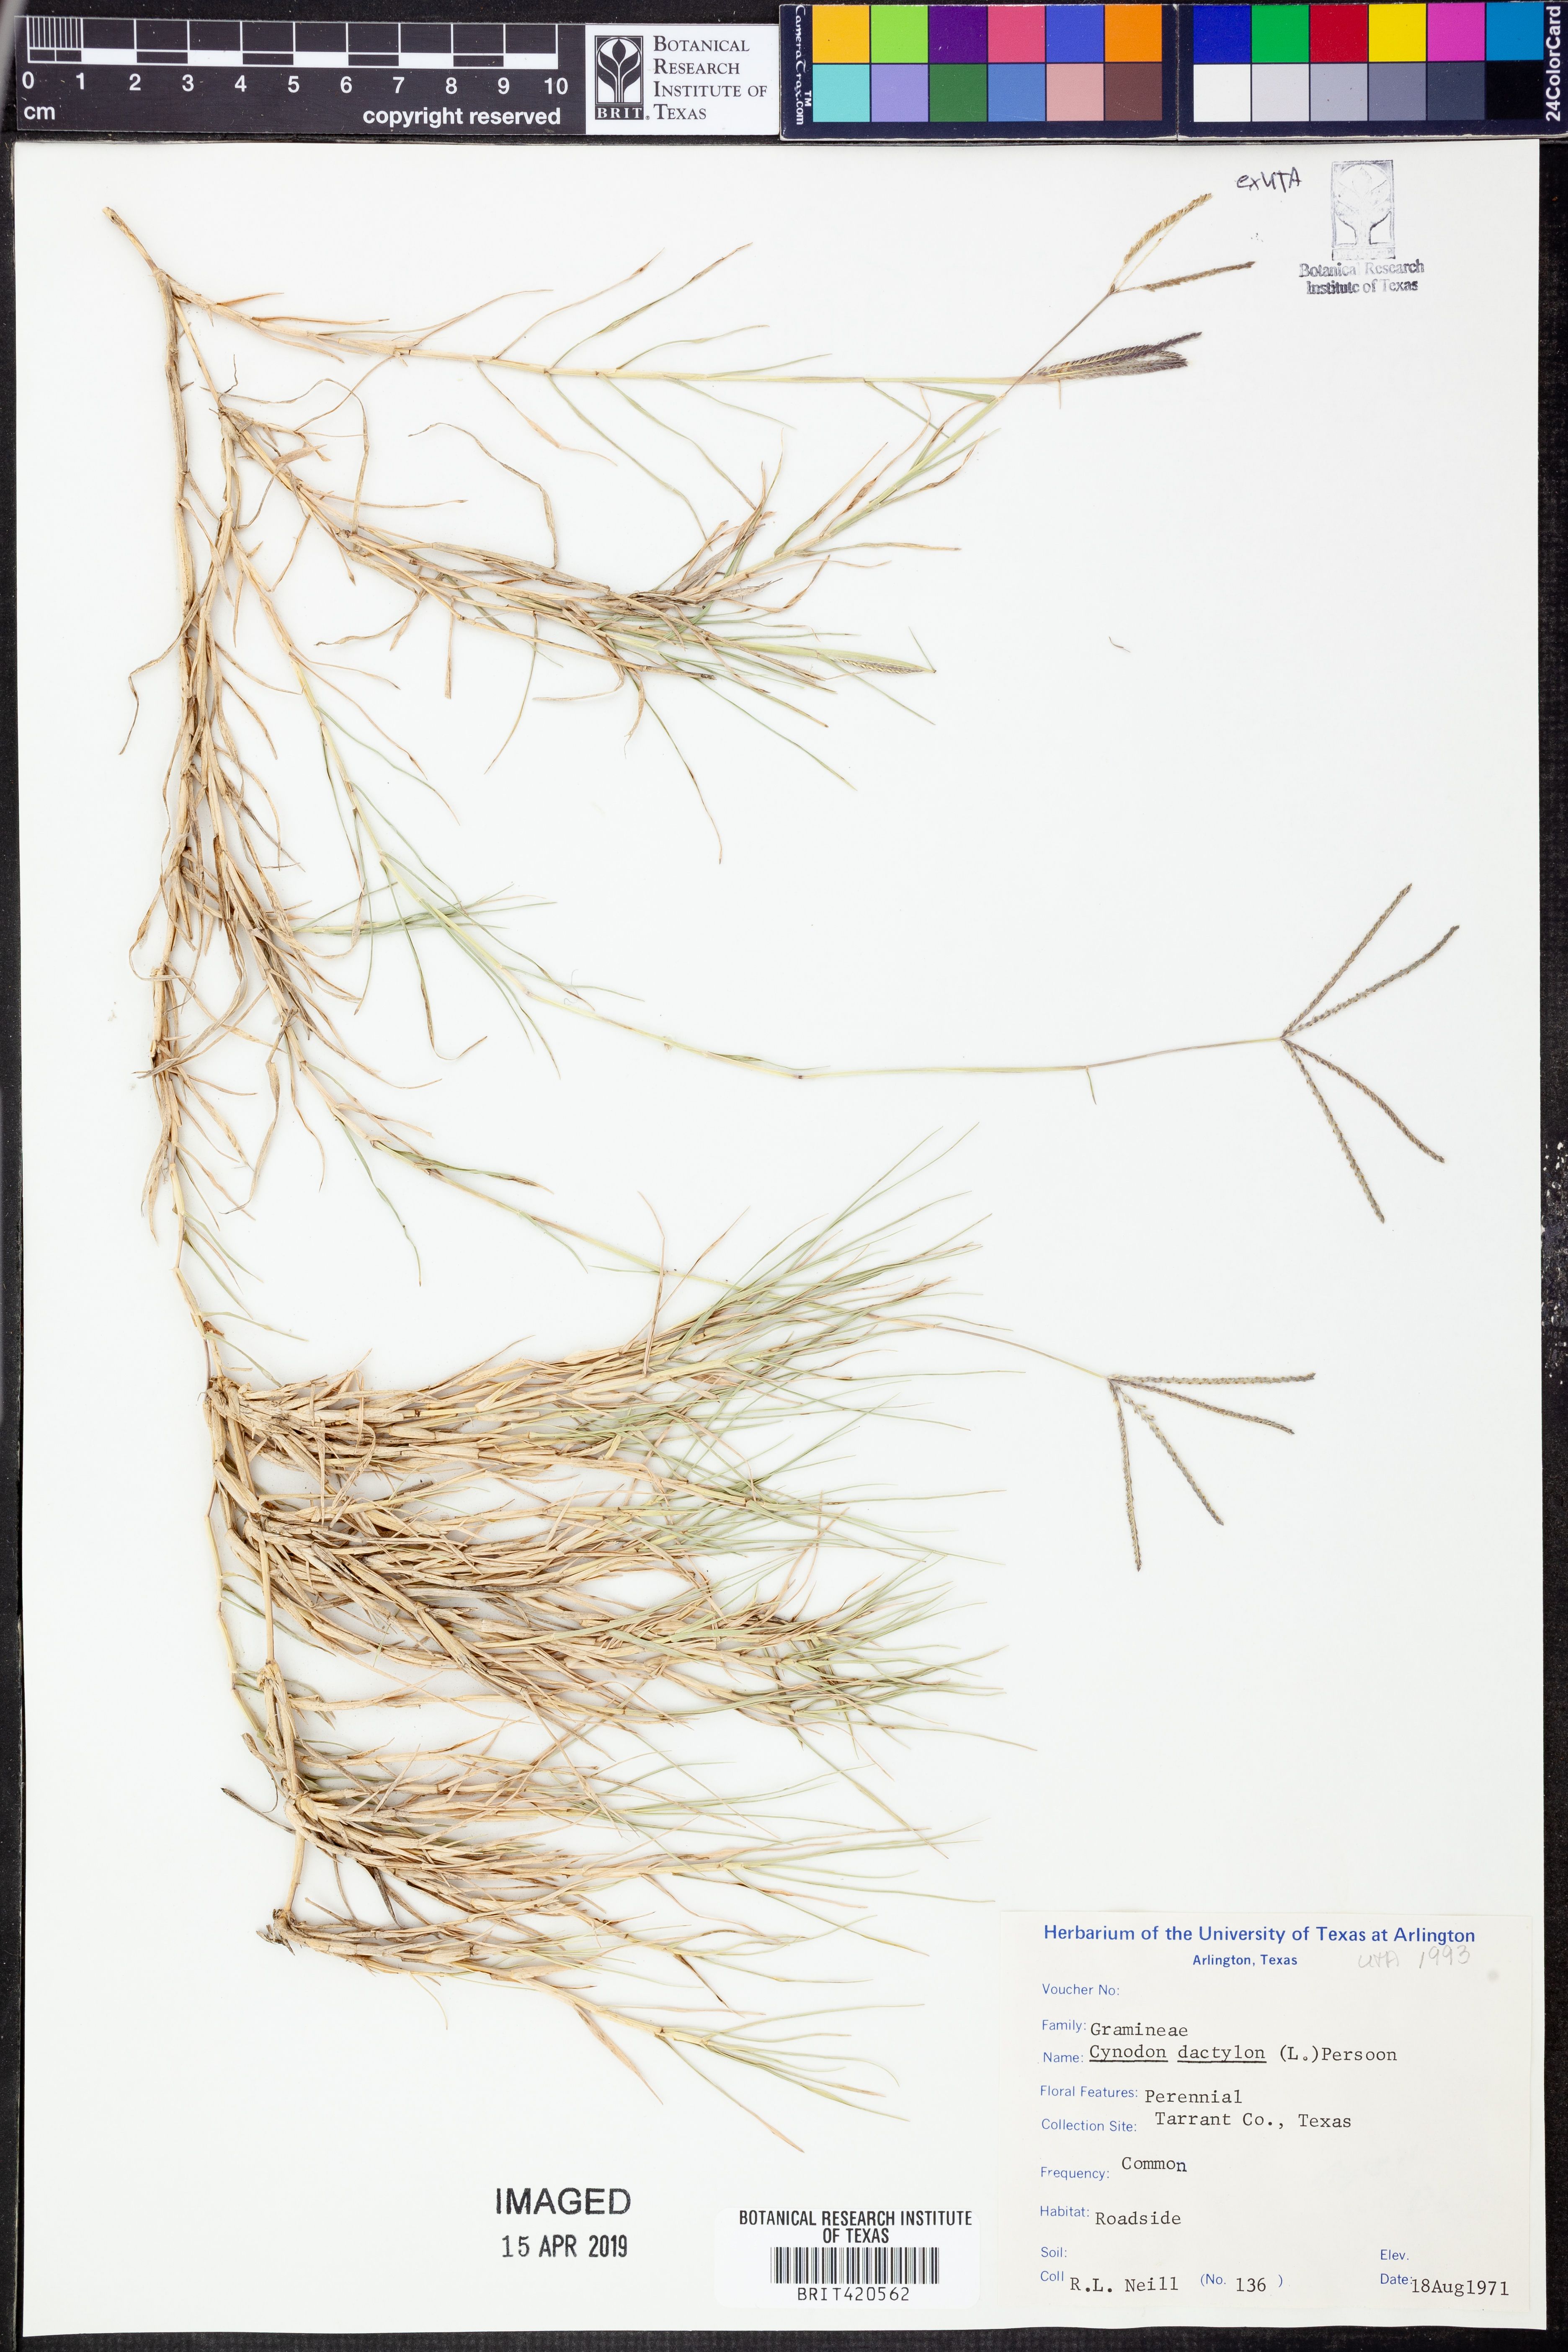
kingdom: Plantae
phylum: Tracheophyta
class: Liliopsida
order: Poales
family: Poaceae
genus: Cynodon
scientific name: Cynodon dactylon
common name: Bermuda grass
